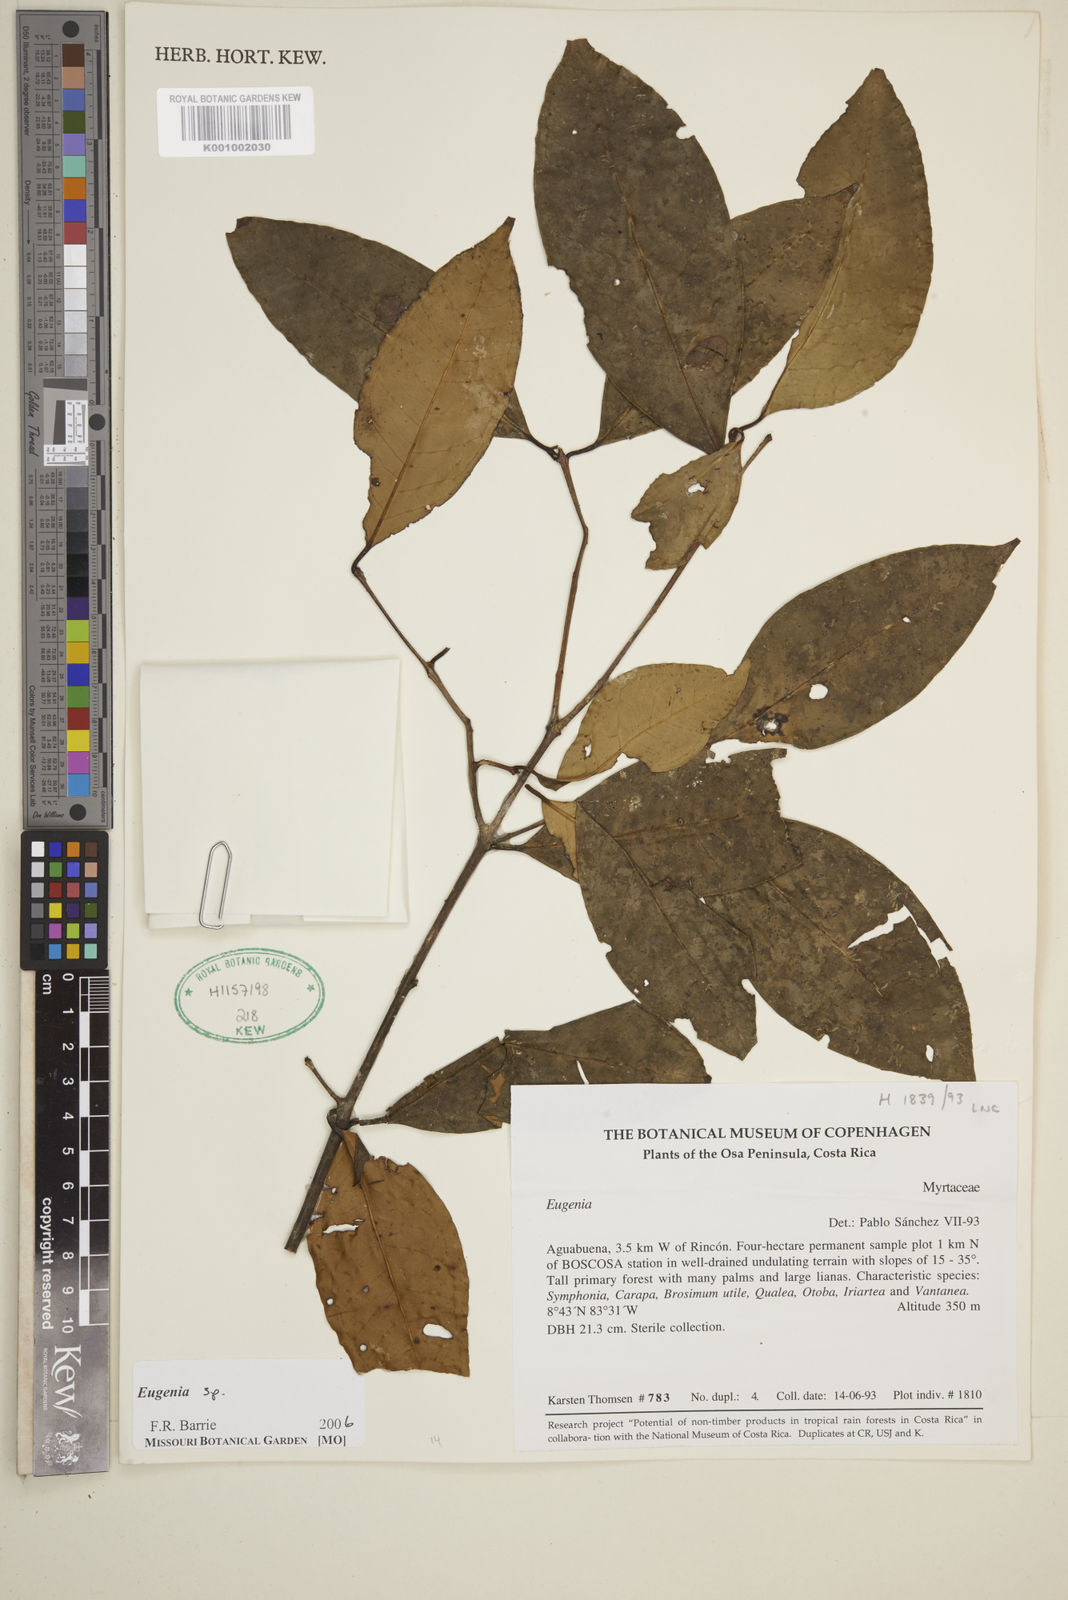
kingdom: Plantae
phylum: Tracheophyta
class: Magnoliopsida
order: Myrtales
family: Myrtaceae
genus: Eugenia
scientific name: Eugenia
